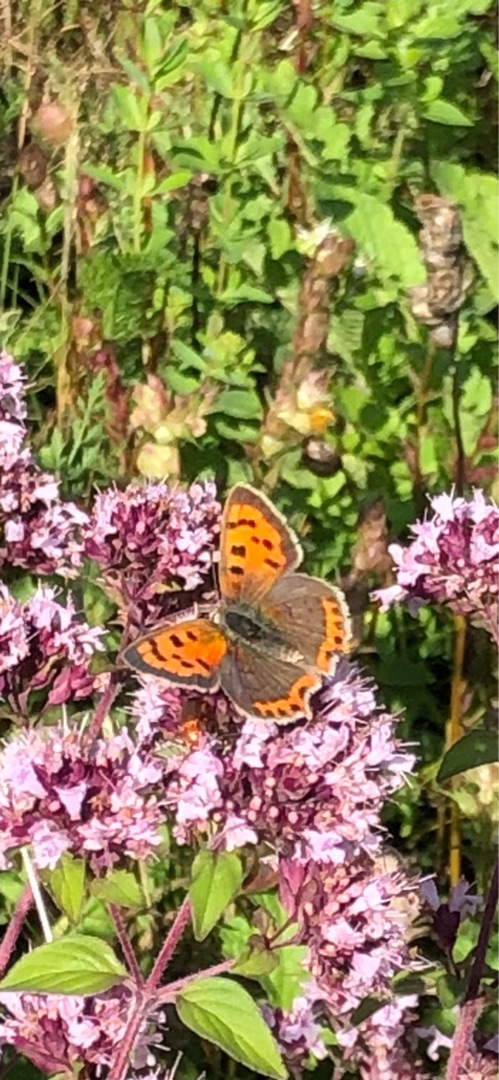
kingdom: Animalia
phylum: Arthropoda
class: Insecta
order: Lepidoptera
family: Lycaenidae
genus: Lycaena
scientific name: Lycaena phlaeas
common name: Lille ildfugl
